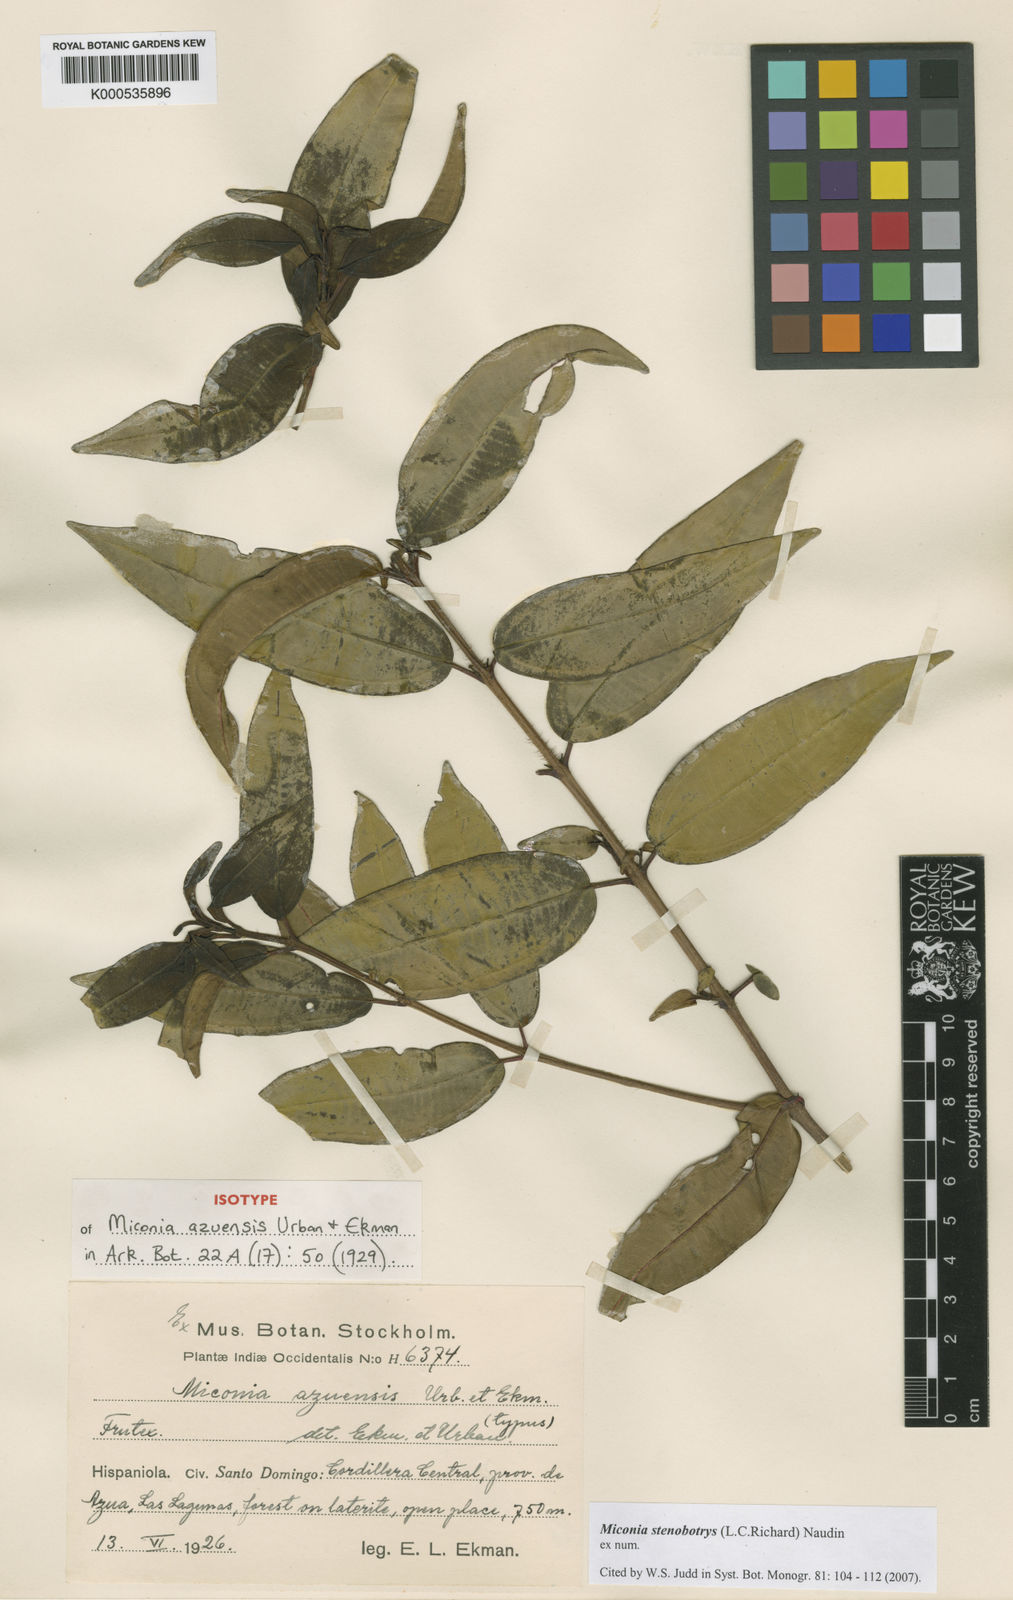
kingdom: Plantae
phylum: Tracheophyta
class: Magnoliopsida
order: Myrtales
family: Melastomataceae
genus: Miconia
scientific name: Miconia stenobotrys
